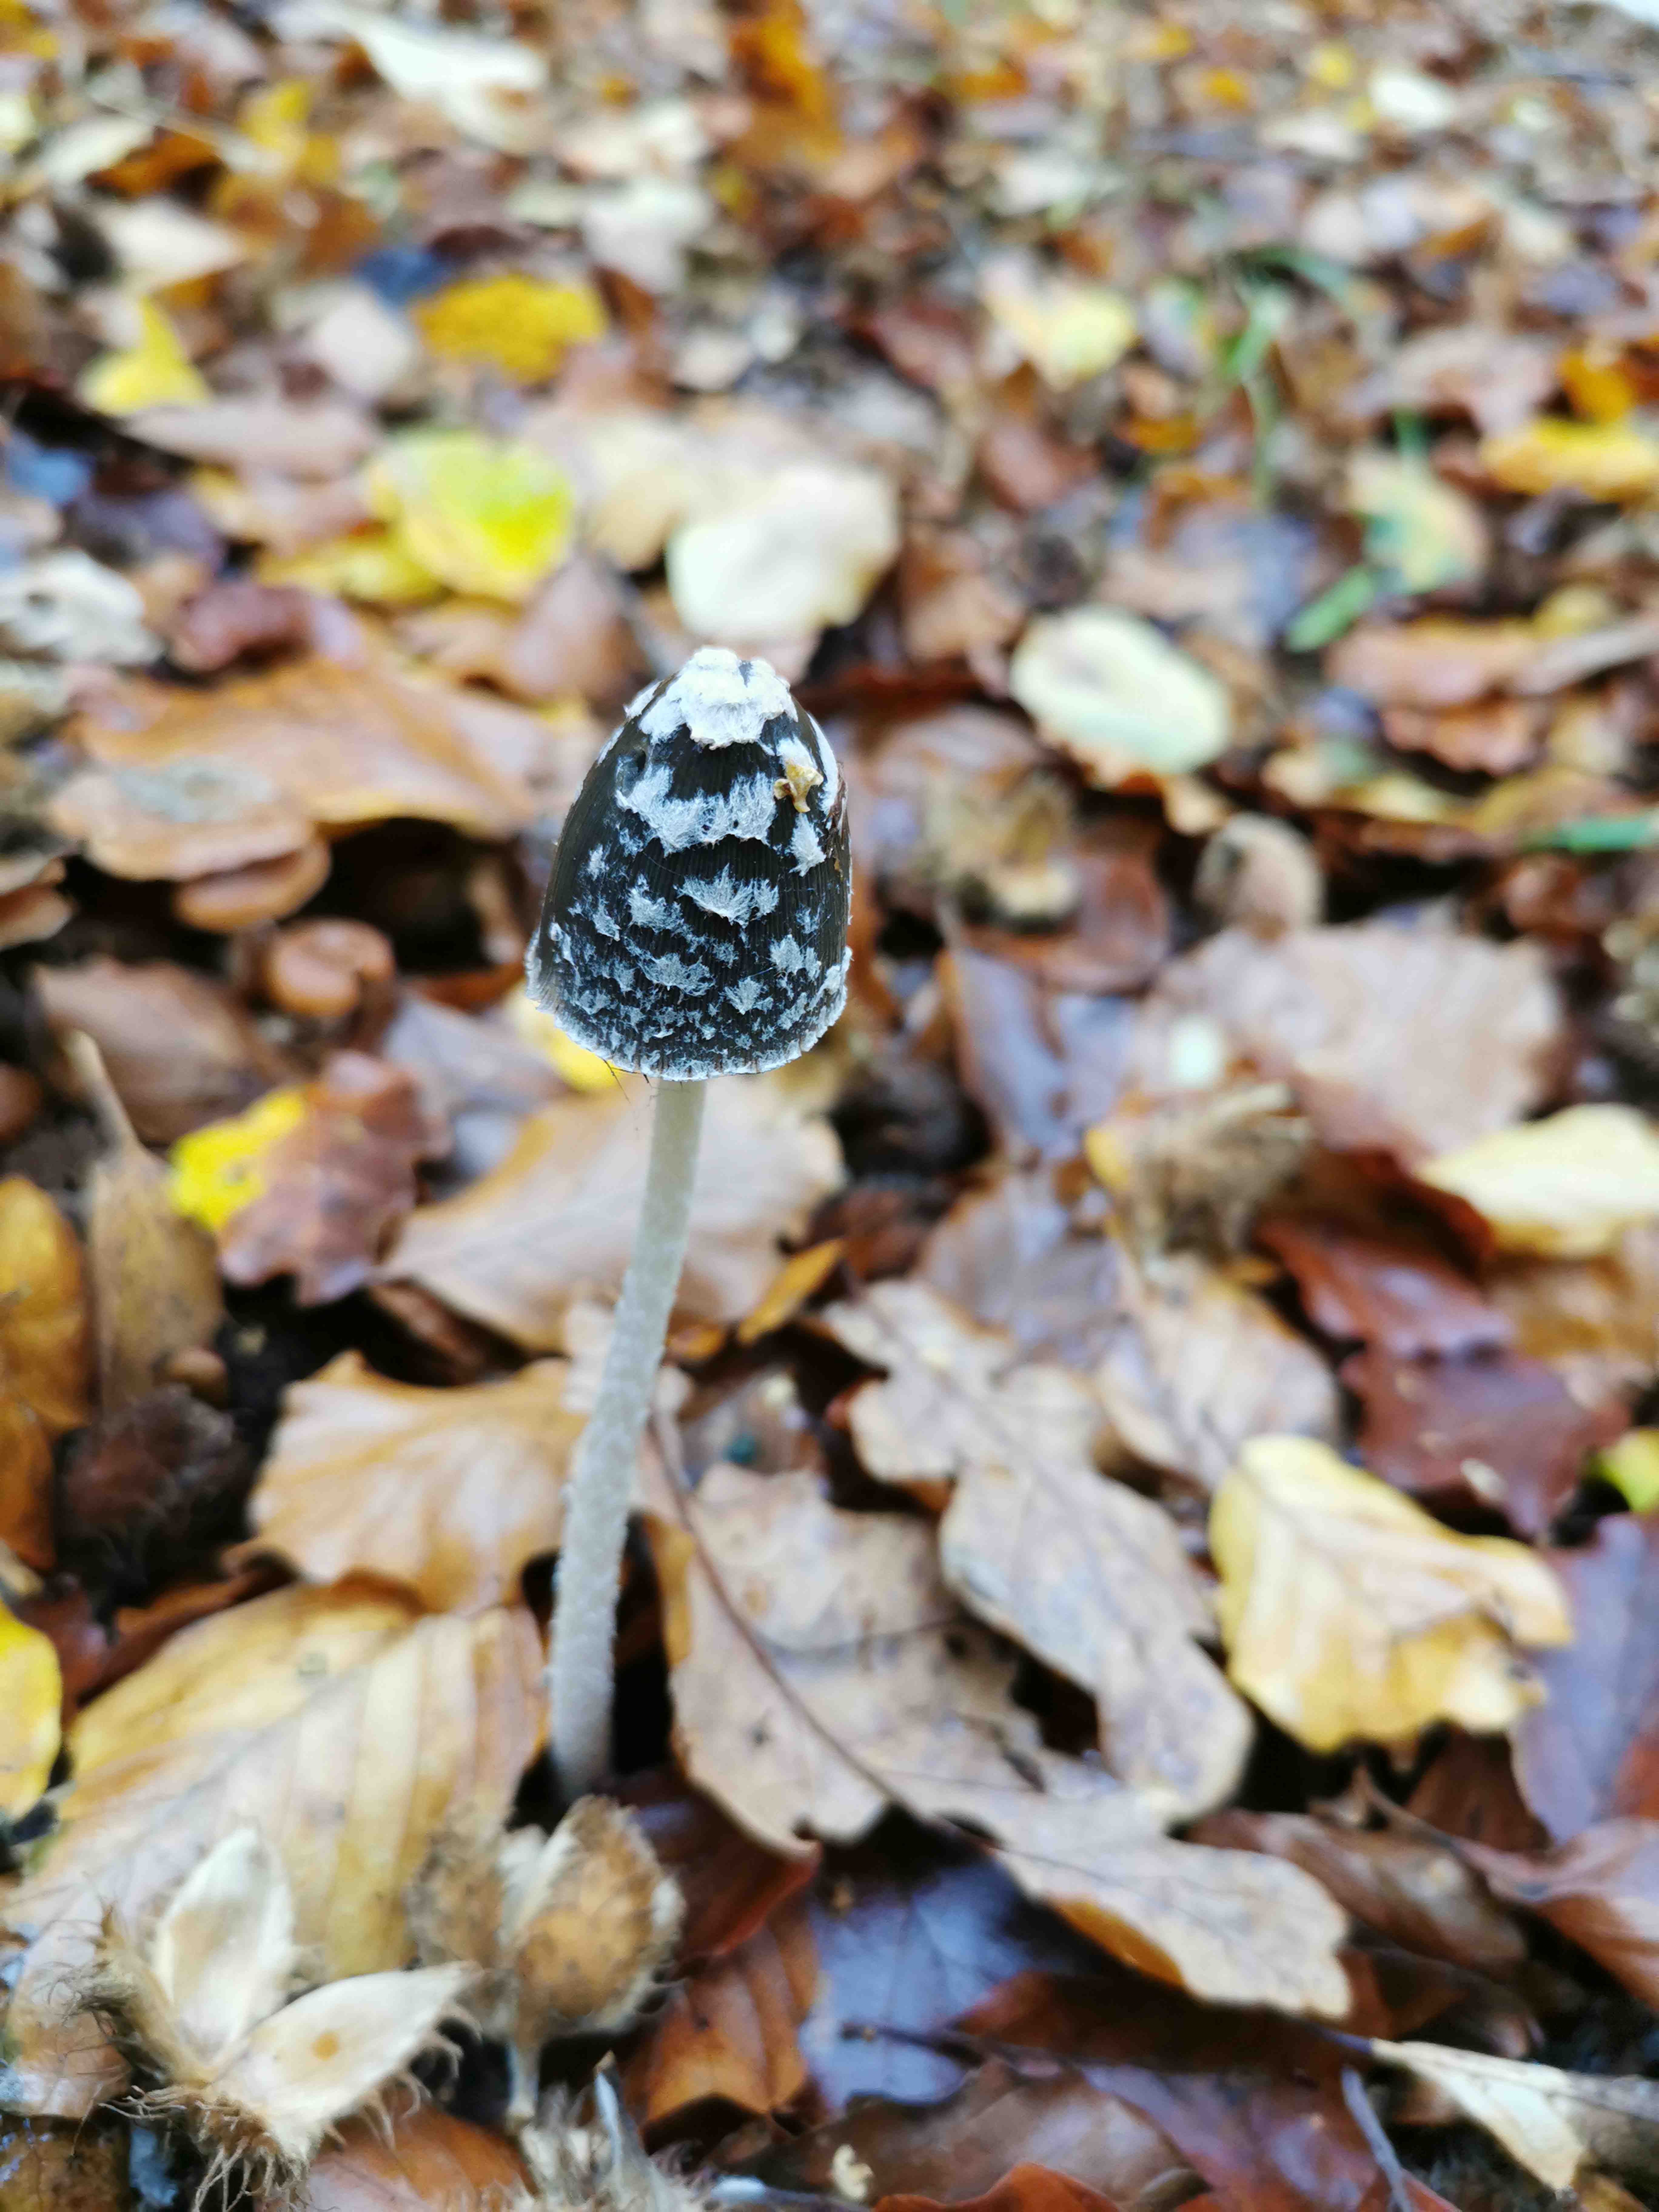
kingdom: Fungi
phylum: Basidiomycota
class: Agaricomycetes
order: Agaricales
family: Psathyrellaceae
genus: Coprinopsis
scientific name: Coprinopsis picacea
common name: skade-blækhat
